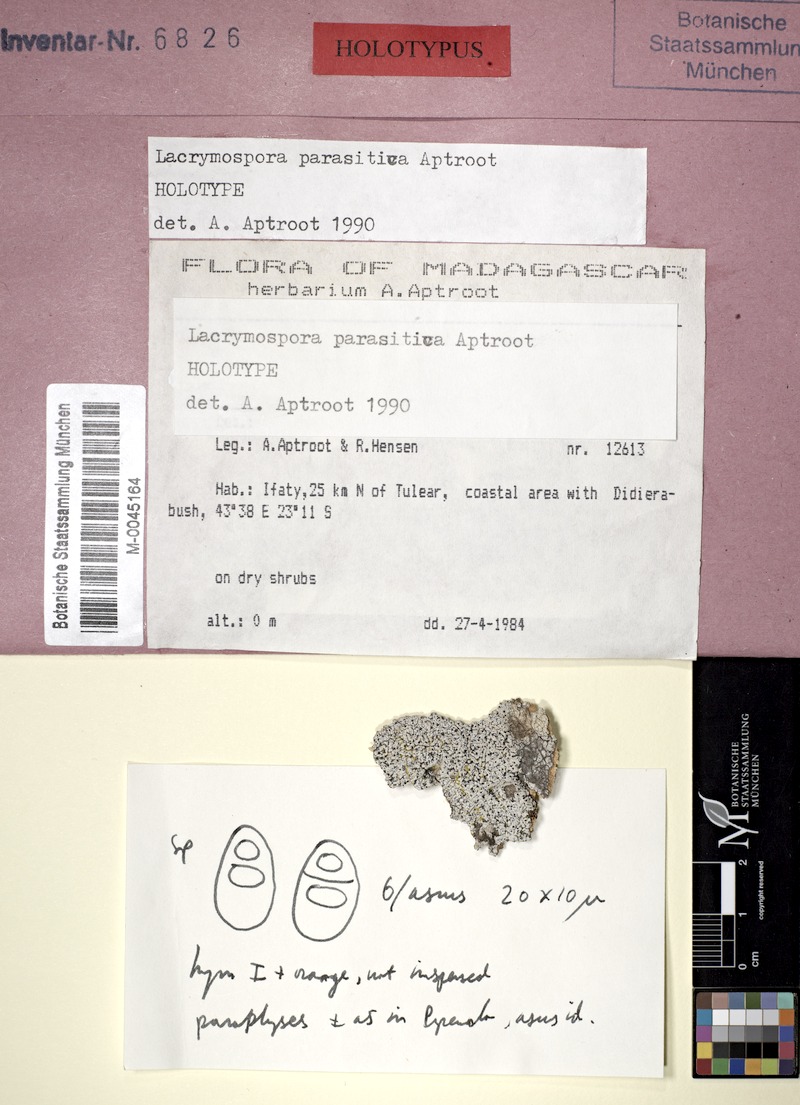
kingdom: Fungi
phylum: Ascomycota
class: Eurotiomycetes
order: Pyrenulales
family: Pyrenulaceae
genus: Lacrymospora
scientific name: Lacrymospora parasitica
